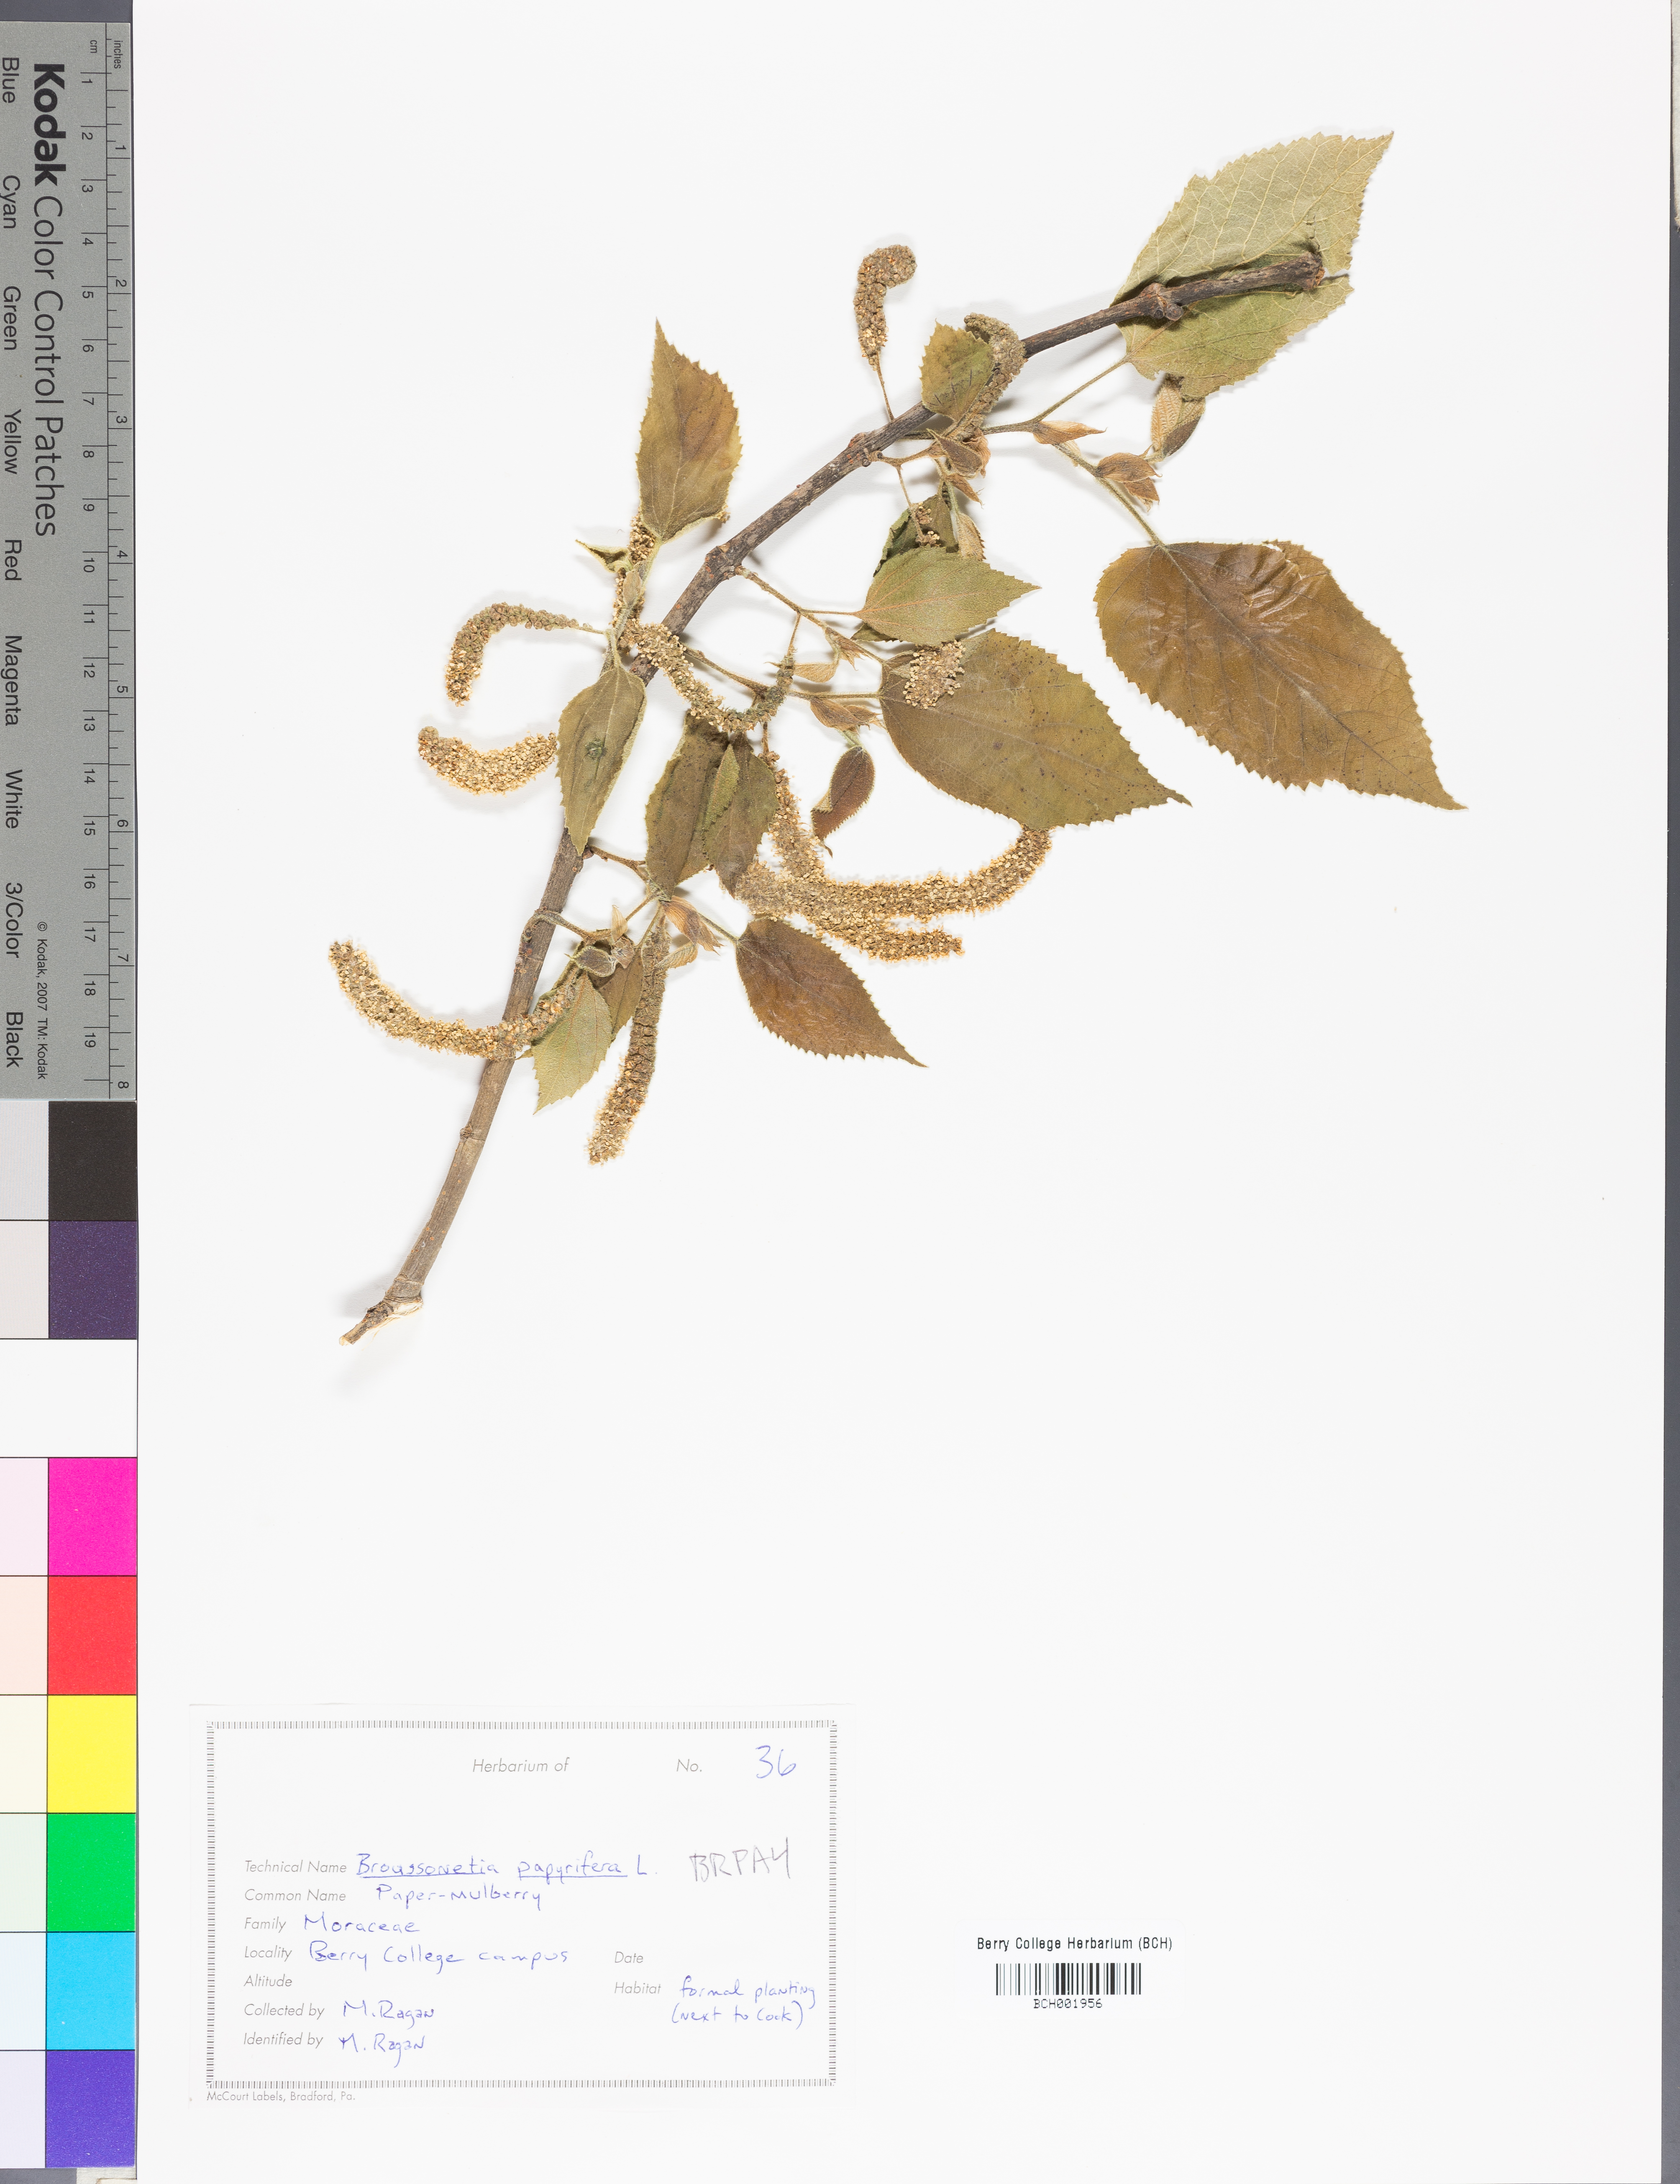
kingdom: Plantae
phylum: Tracheophyta
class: Magnoliopsida
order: Rosales
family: Moraceae
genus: Broussonetia
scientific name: Broussonetia papyrifera
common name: Paper mulberry
